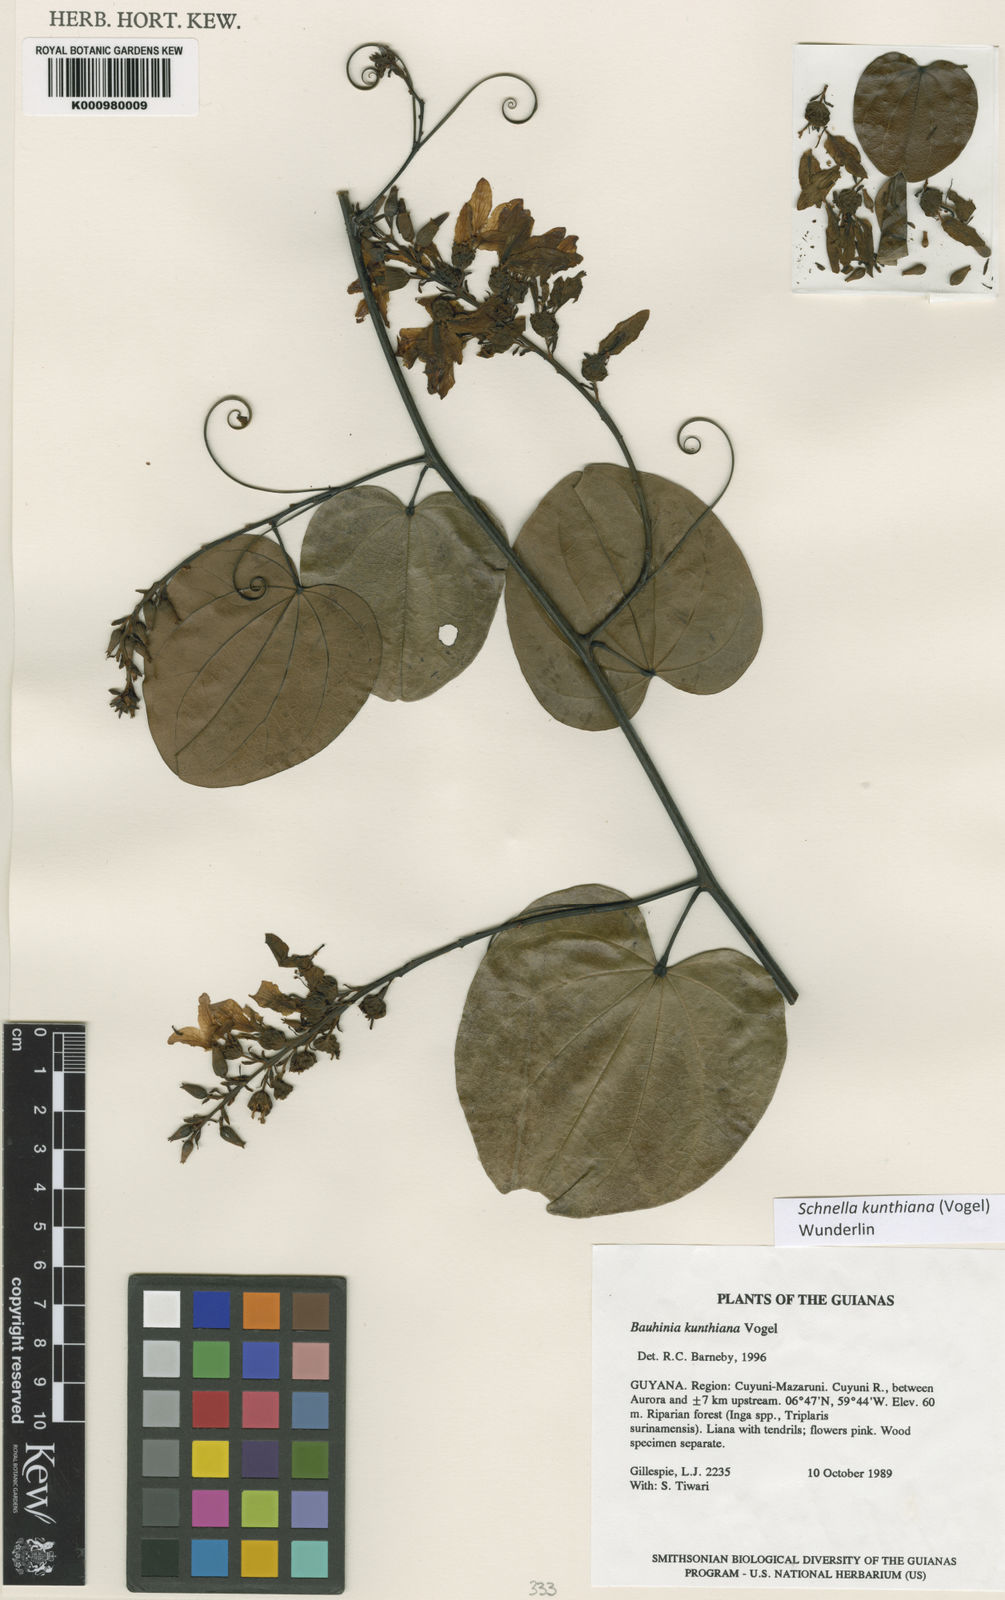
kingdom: Plantae
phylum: Tracheophyta
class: Magnoliopsida
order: Fabales
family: Fabaceae
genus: Schnella
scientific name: Schnella kunthiana
